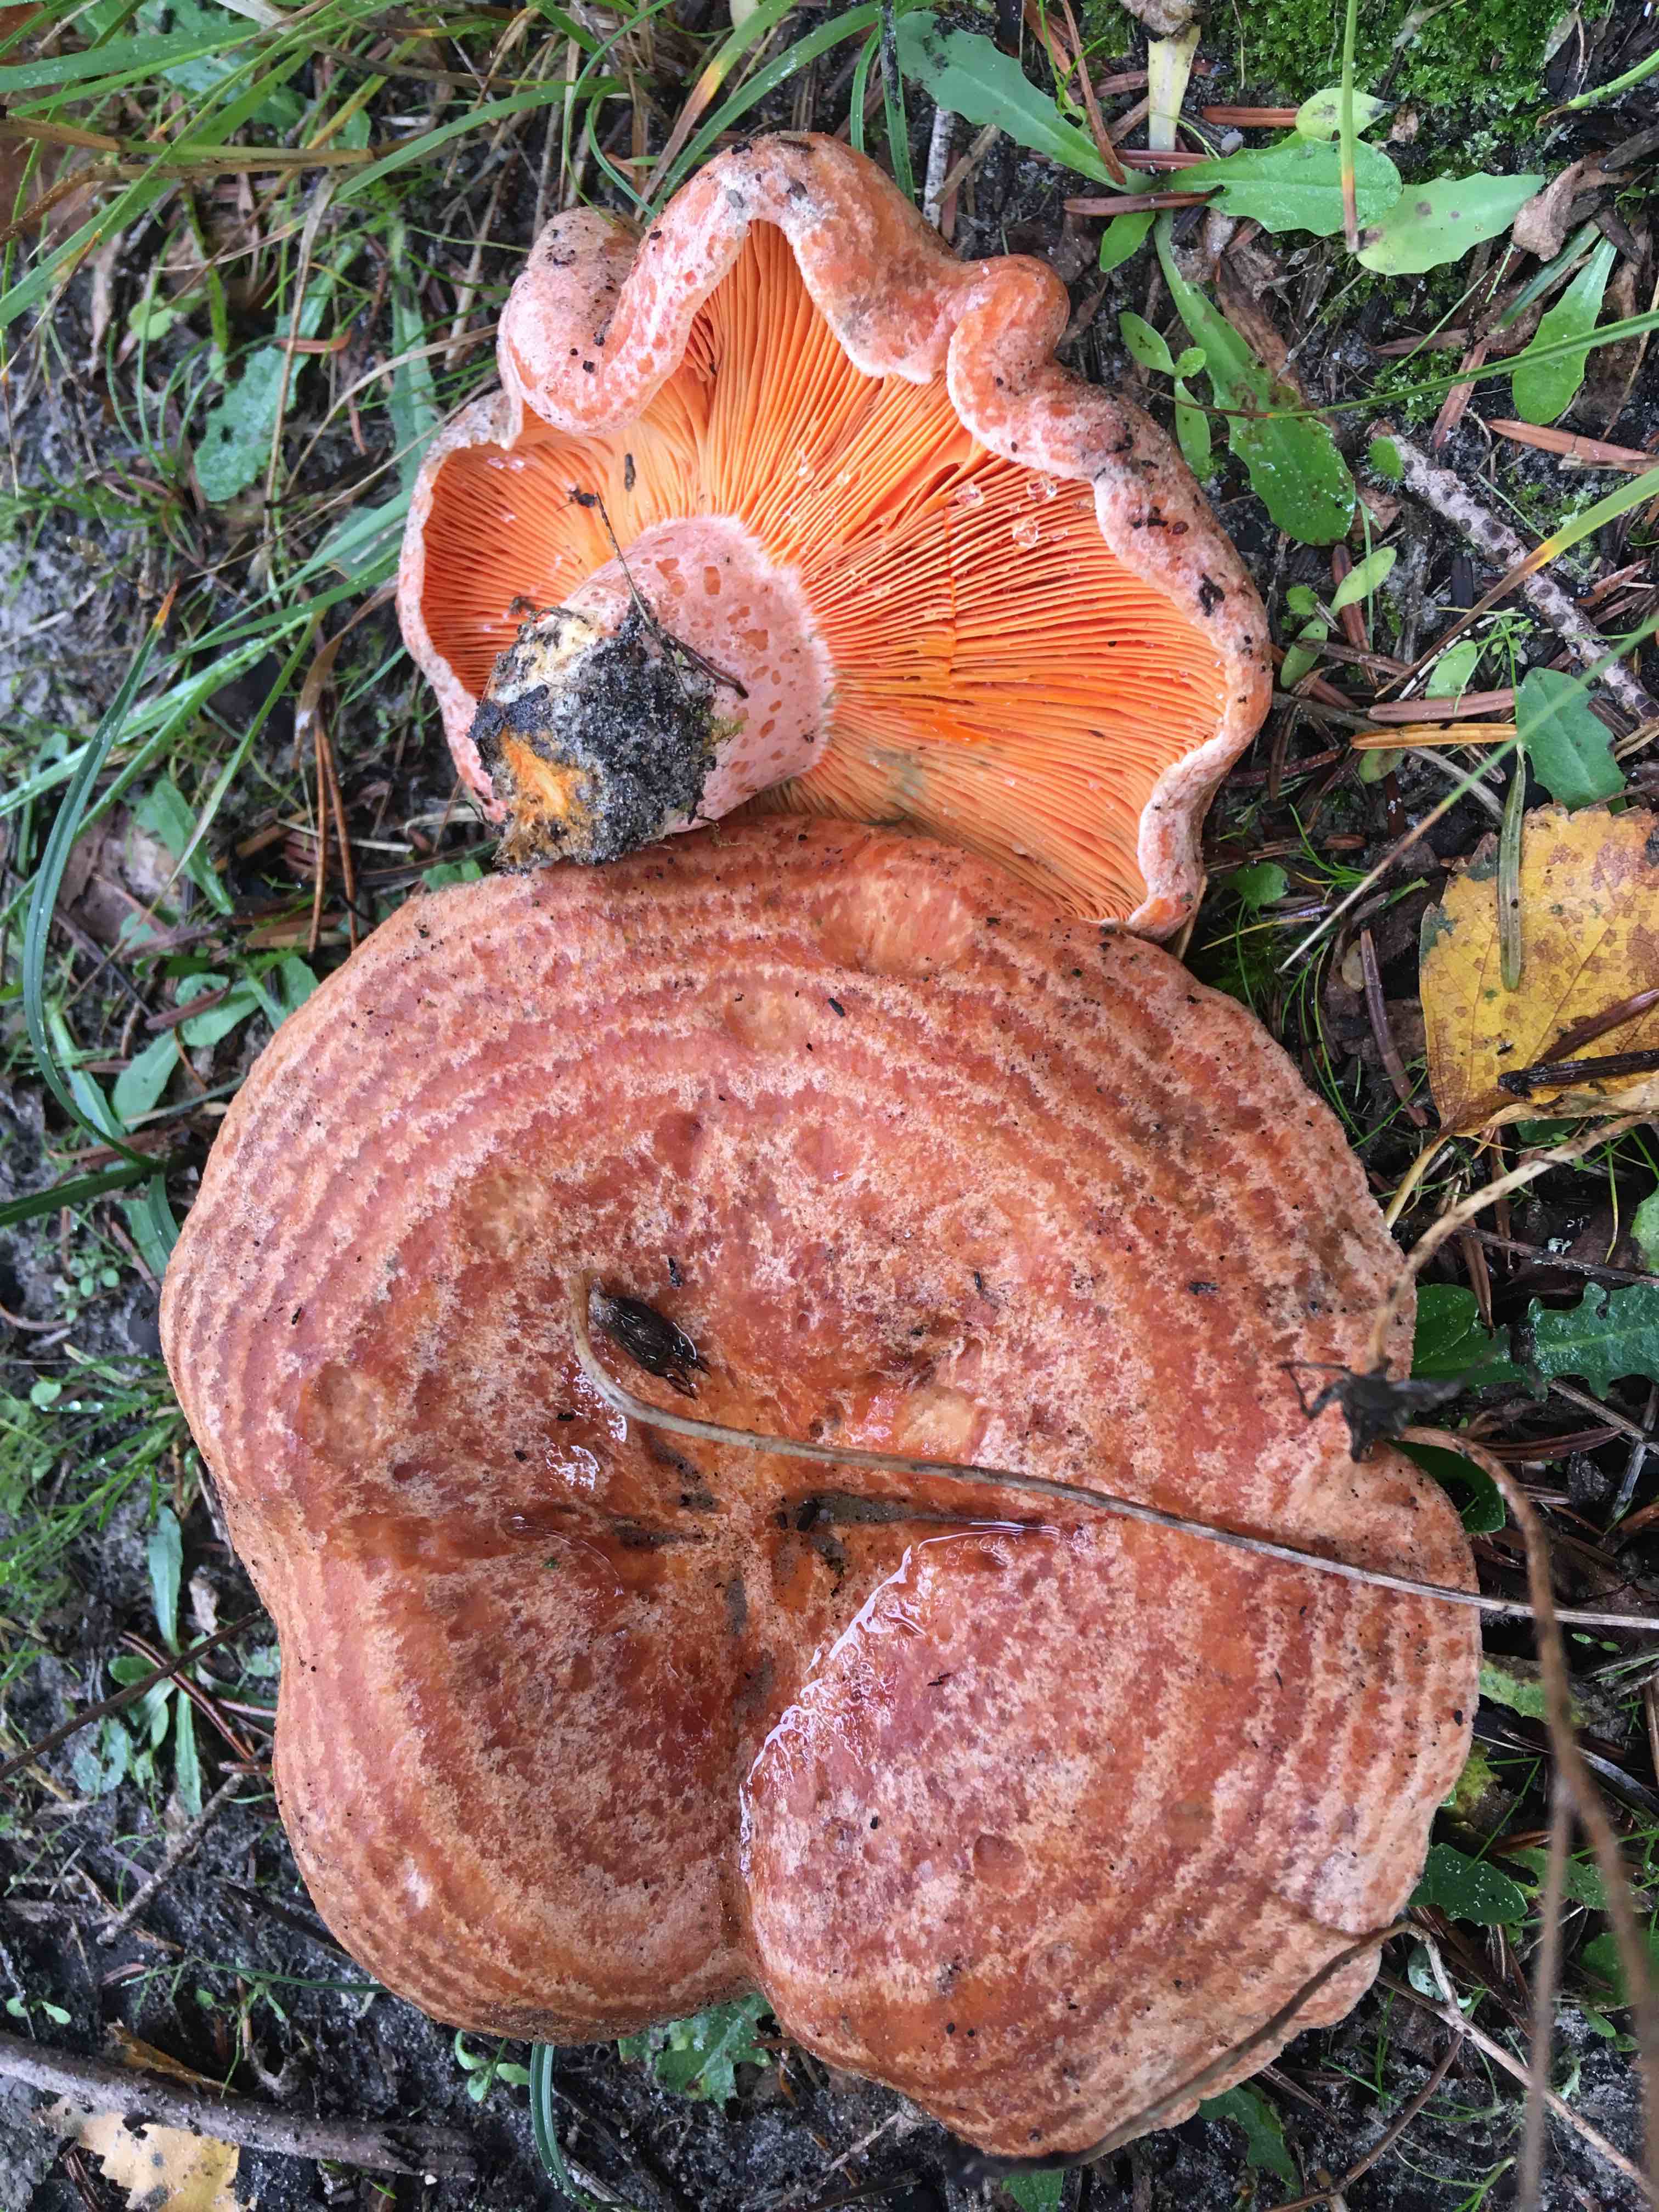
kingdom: Fungi
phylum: Basidiomycota
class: Agaricomycetes
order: Russulales
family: Russulaceae
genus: Lactarius
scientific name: Lactarius deliciosus
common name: velsmagende mælkehat
